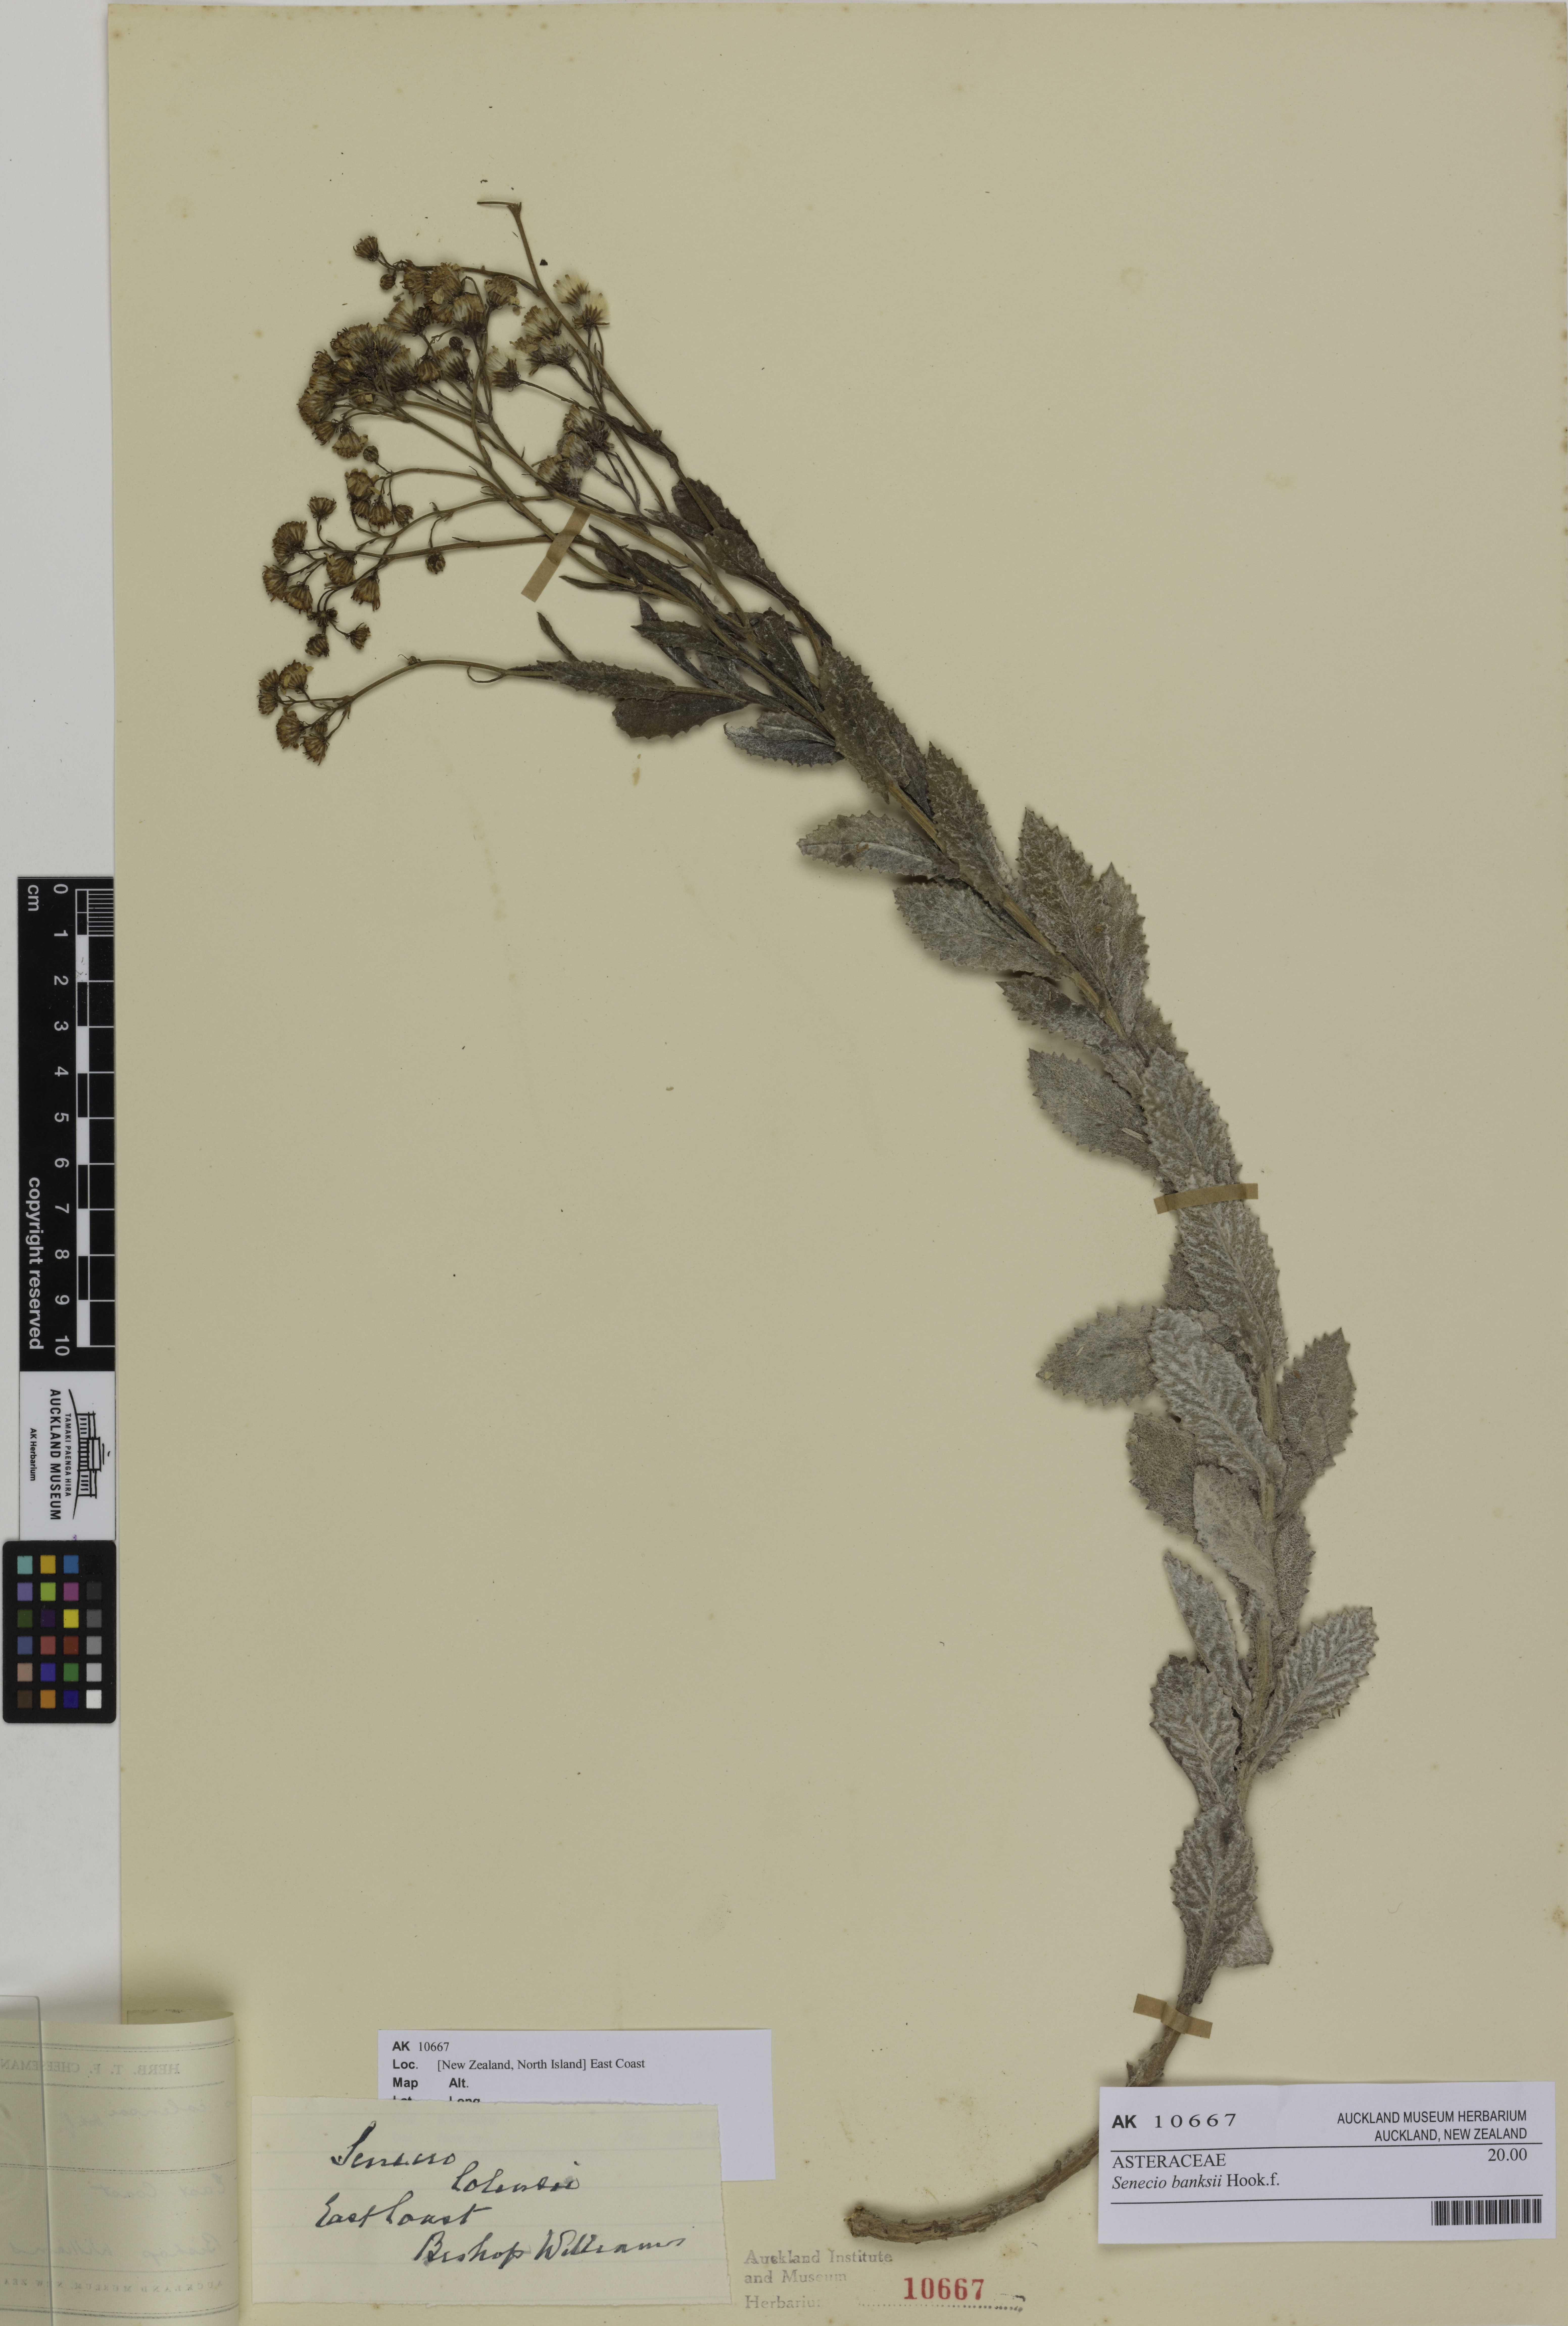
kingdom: Plantae
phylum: Tracheophyta
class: Magnoliopsida
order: Asterales
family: Asteraceae
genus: Senecio
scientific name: Senecio banksii
